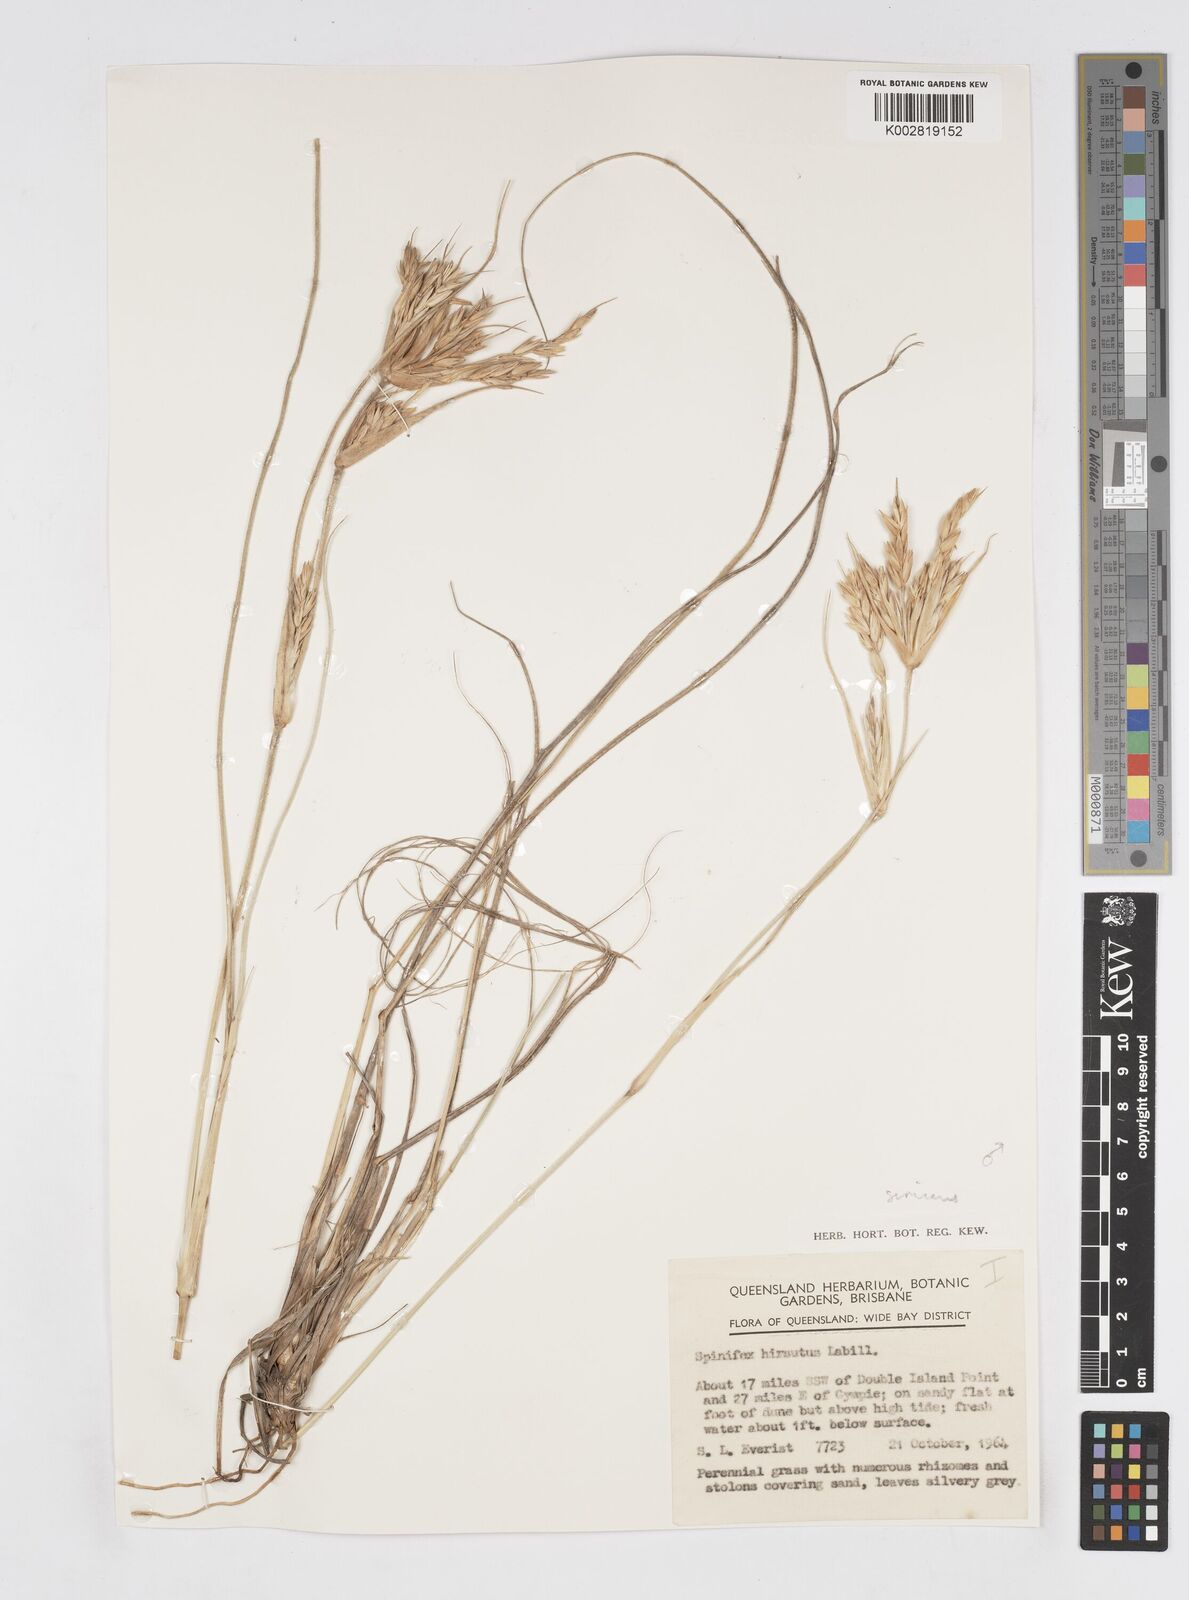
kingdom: Plantae
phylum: Tracheophyta
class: Liliopsida
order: Poales
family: Poaceae
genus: Spinifex
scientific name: Spinifex hirsutus
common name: Hairy spinifex
